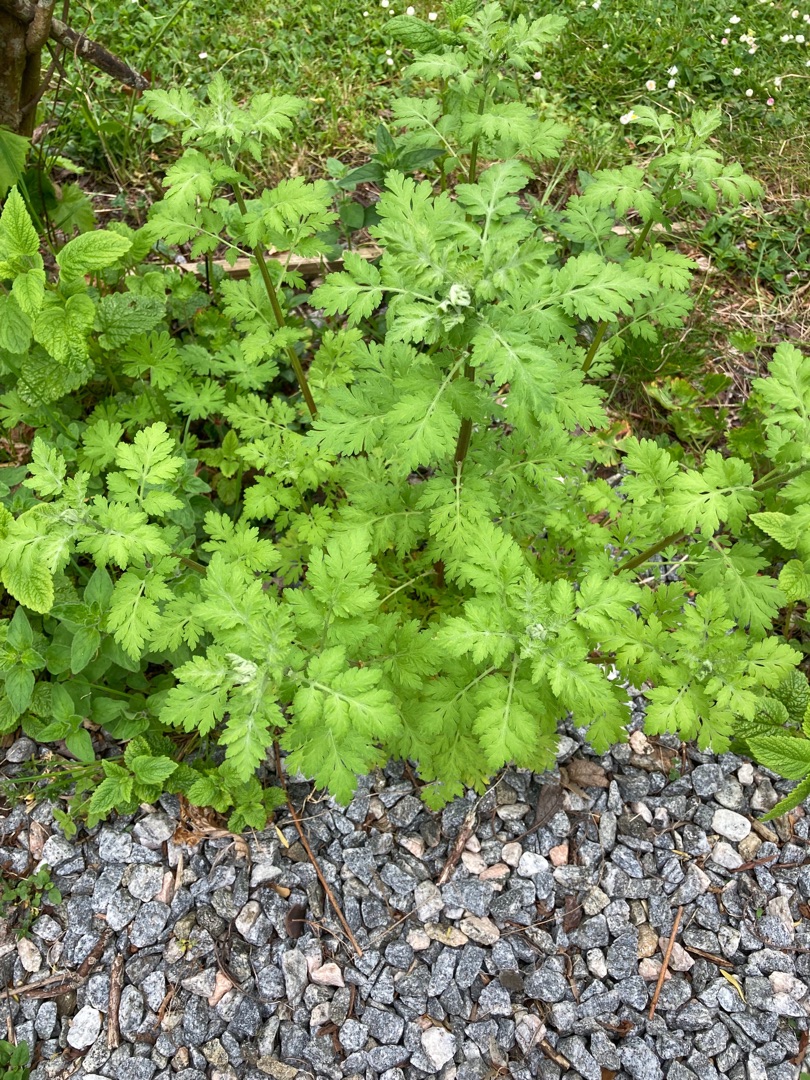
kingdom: Plantae
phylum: Tracheophyta
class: Magnoliopsida
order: Asterales
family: Asteraceae
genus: Tanacetum
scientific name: Tanacetum parthenium
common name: Matrem
